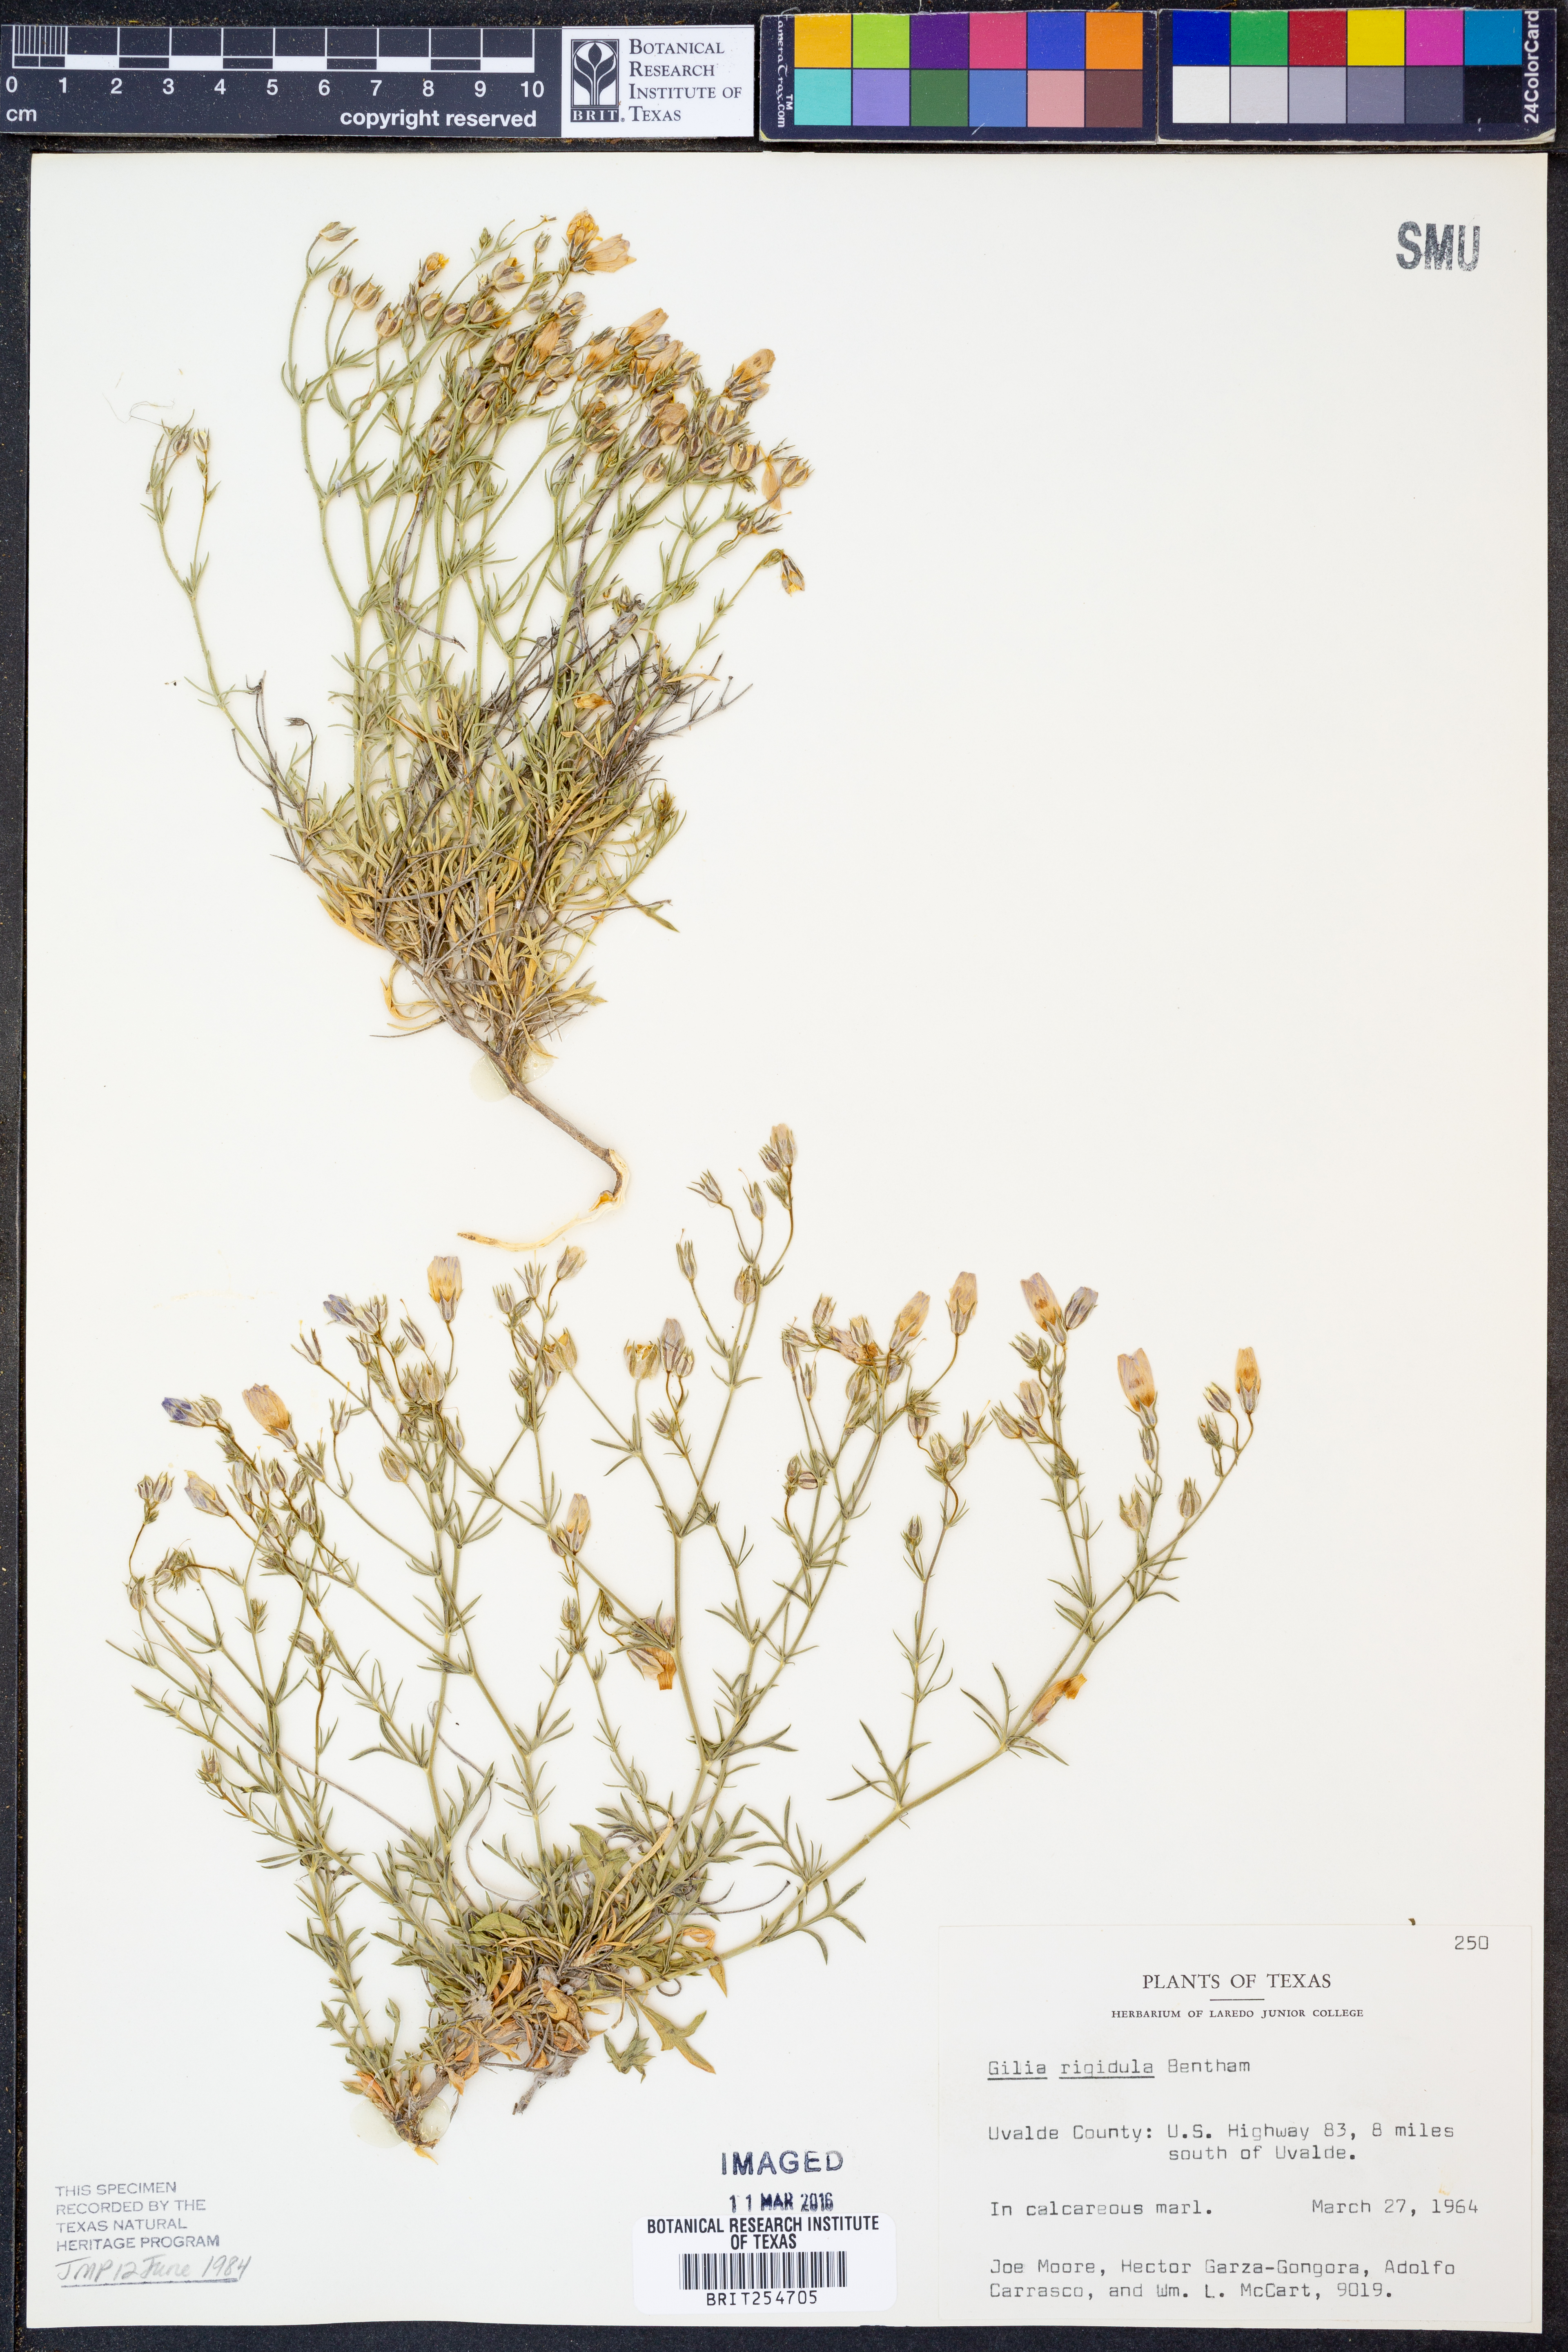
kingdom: Plantae
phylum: Tracheophyta
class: Magnoliopsida
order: Ericales
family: Polemoniaceae
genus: Giliastrum
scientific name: Giliastrum rigidulum
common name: Bluebowls
